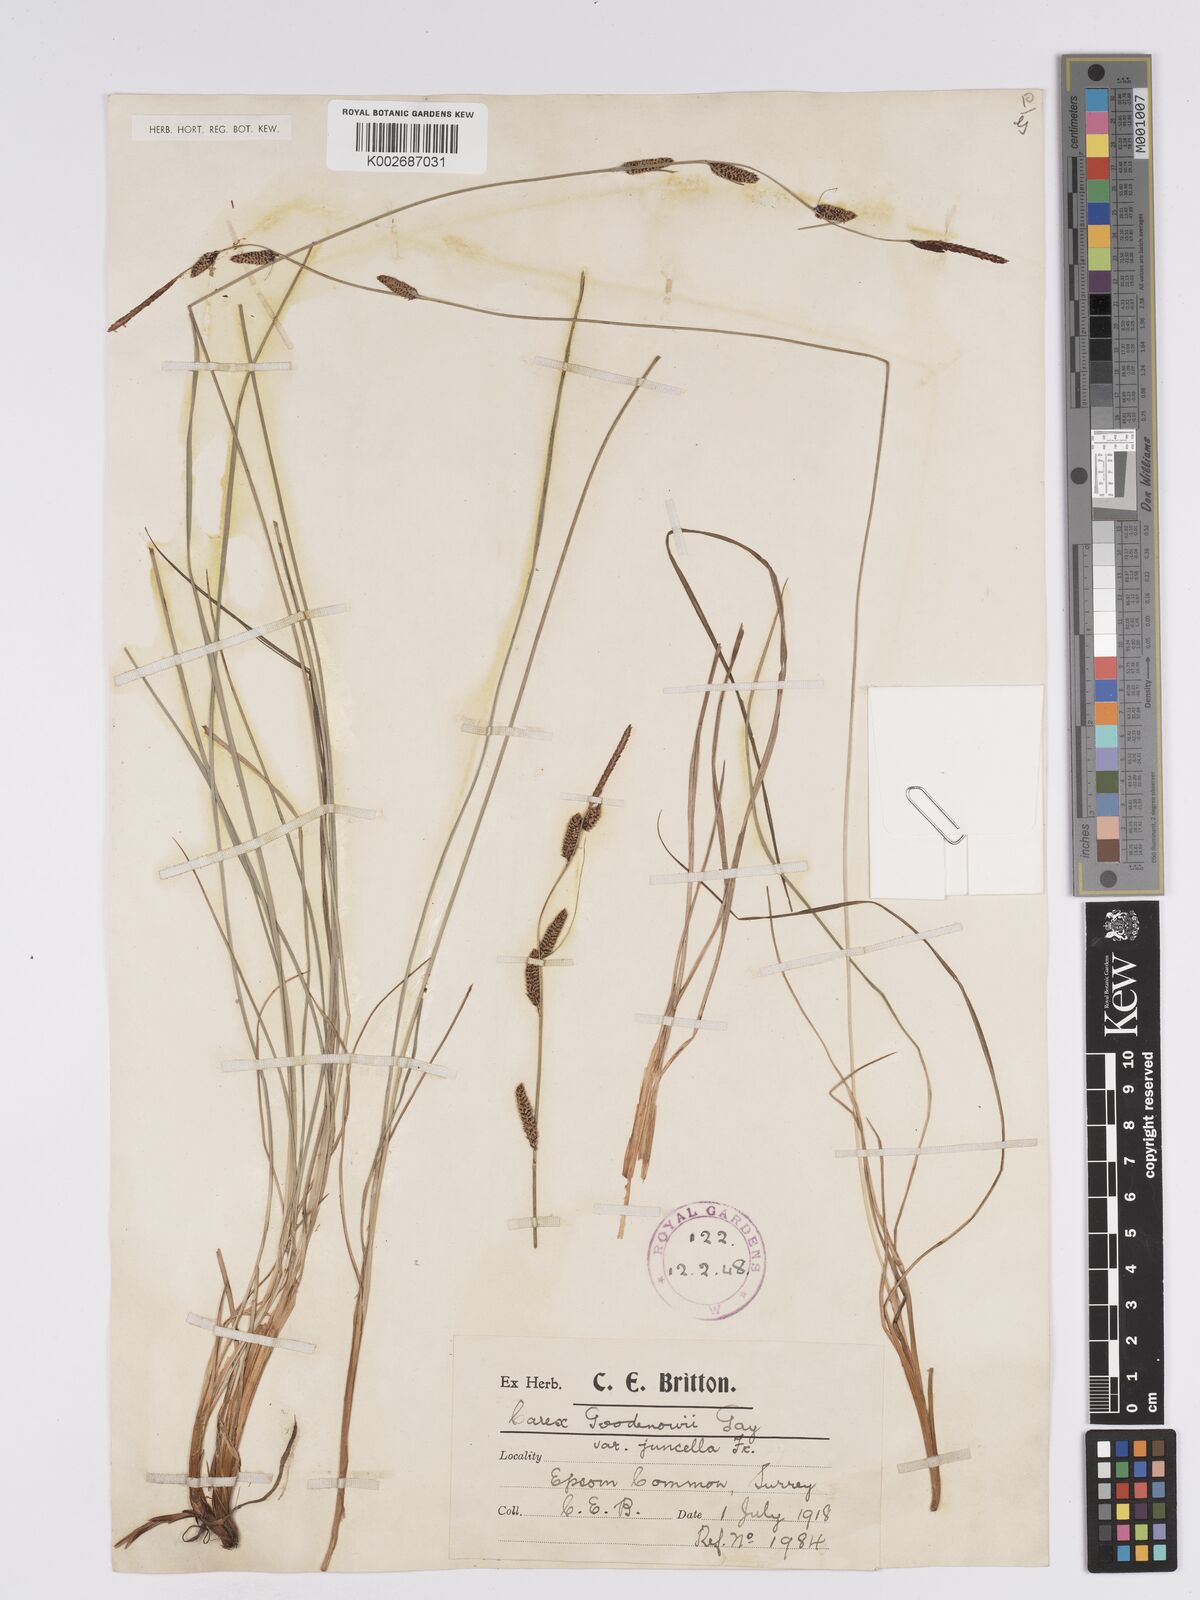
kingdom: Plantae
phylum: Tracheophyta
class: Liliopsida
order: Poales
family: Cyperaceae
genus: Carex
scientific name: Carex nigra
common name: Common sedge
